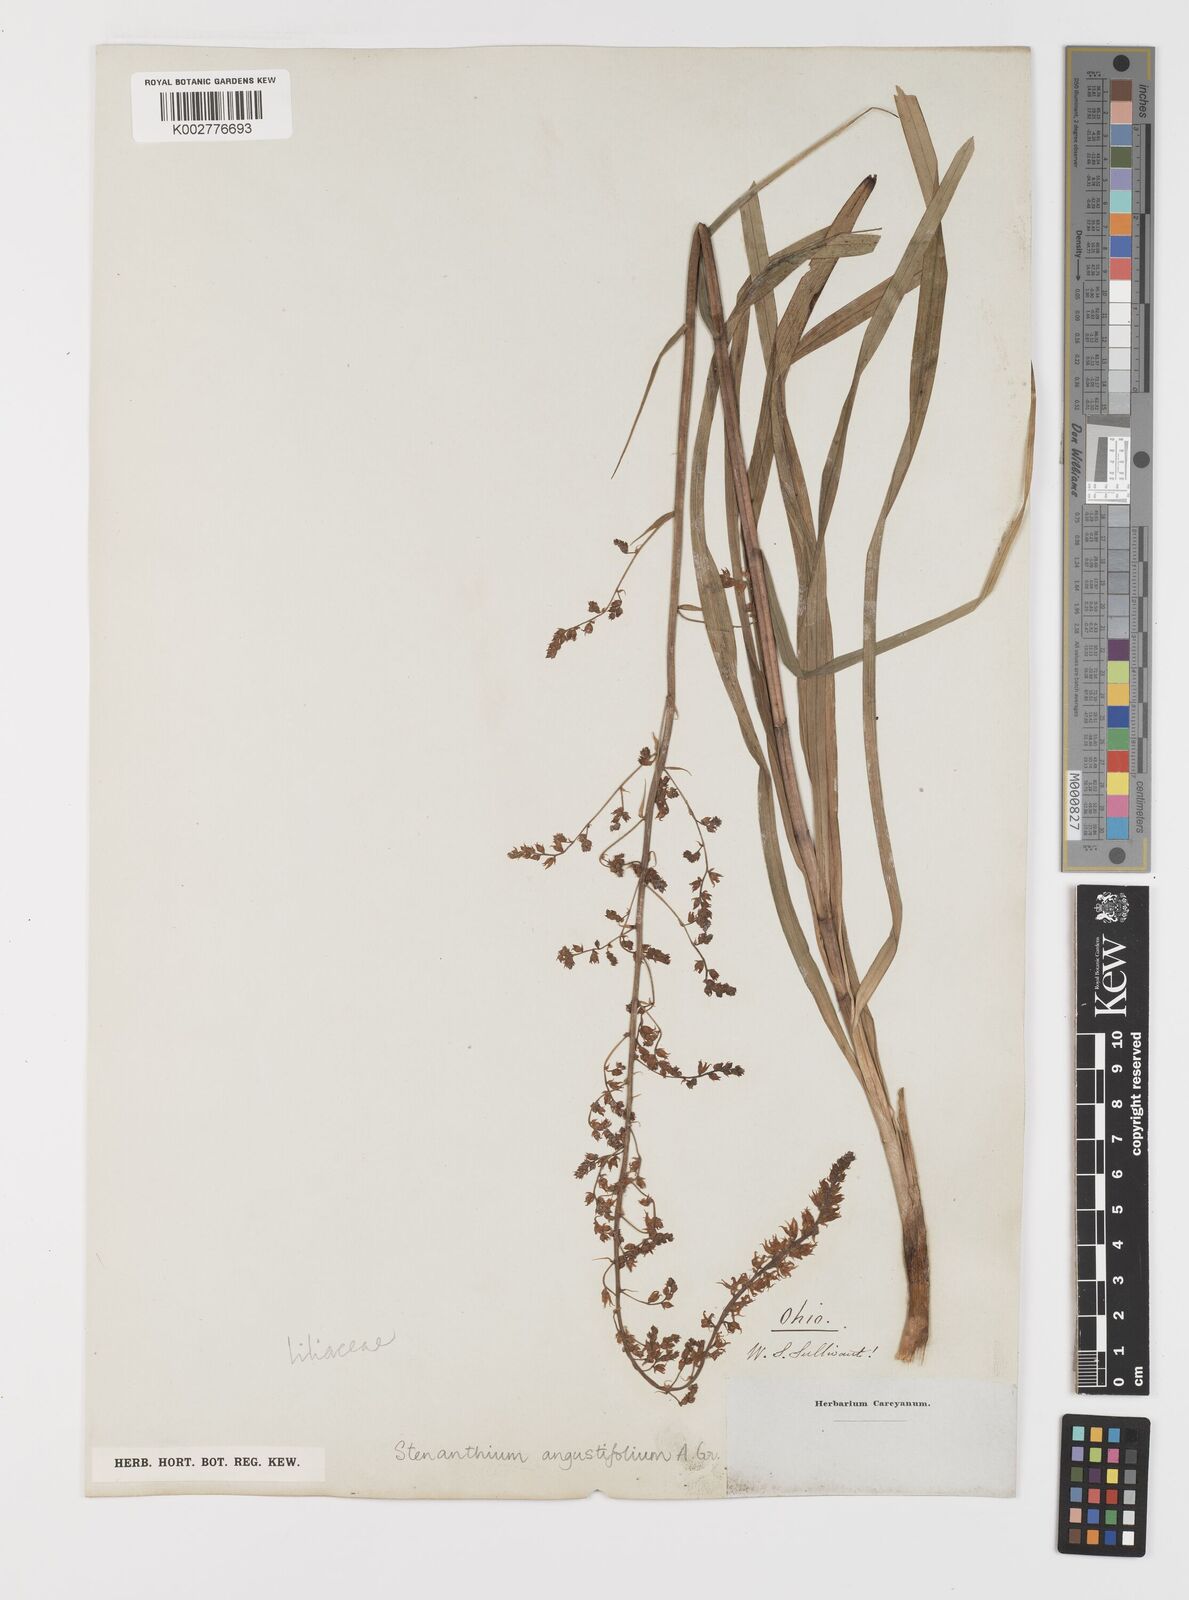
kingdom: Plantae
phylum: Tracheophyta
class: Liliopsida
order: Liliales
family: Melanthiaceae
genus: Stenanthium
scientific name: Stenanthium gramineum
